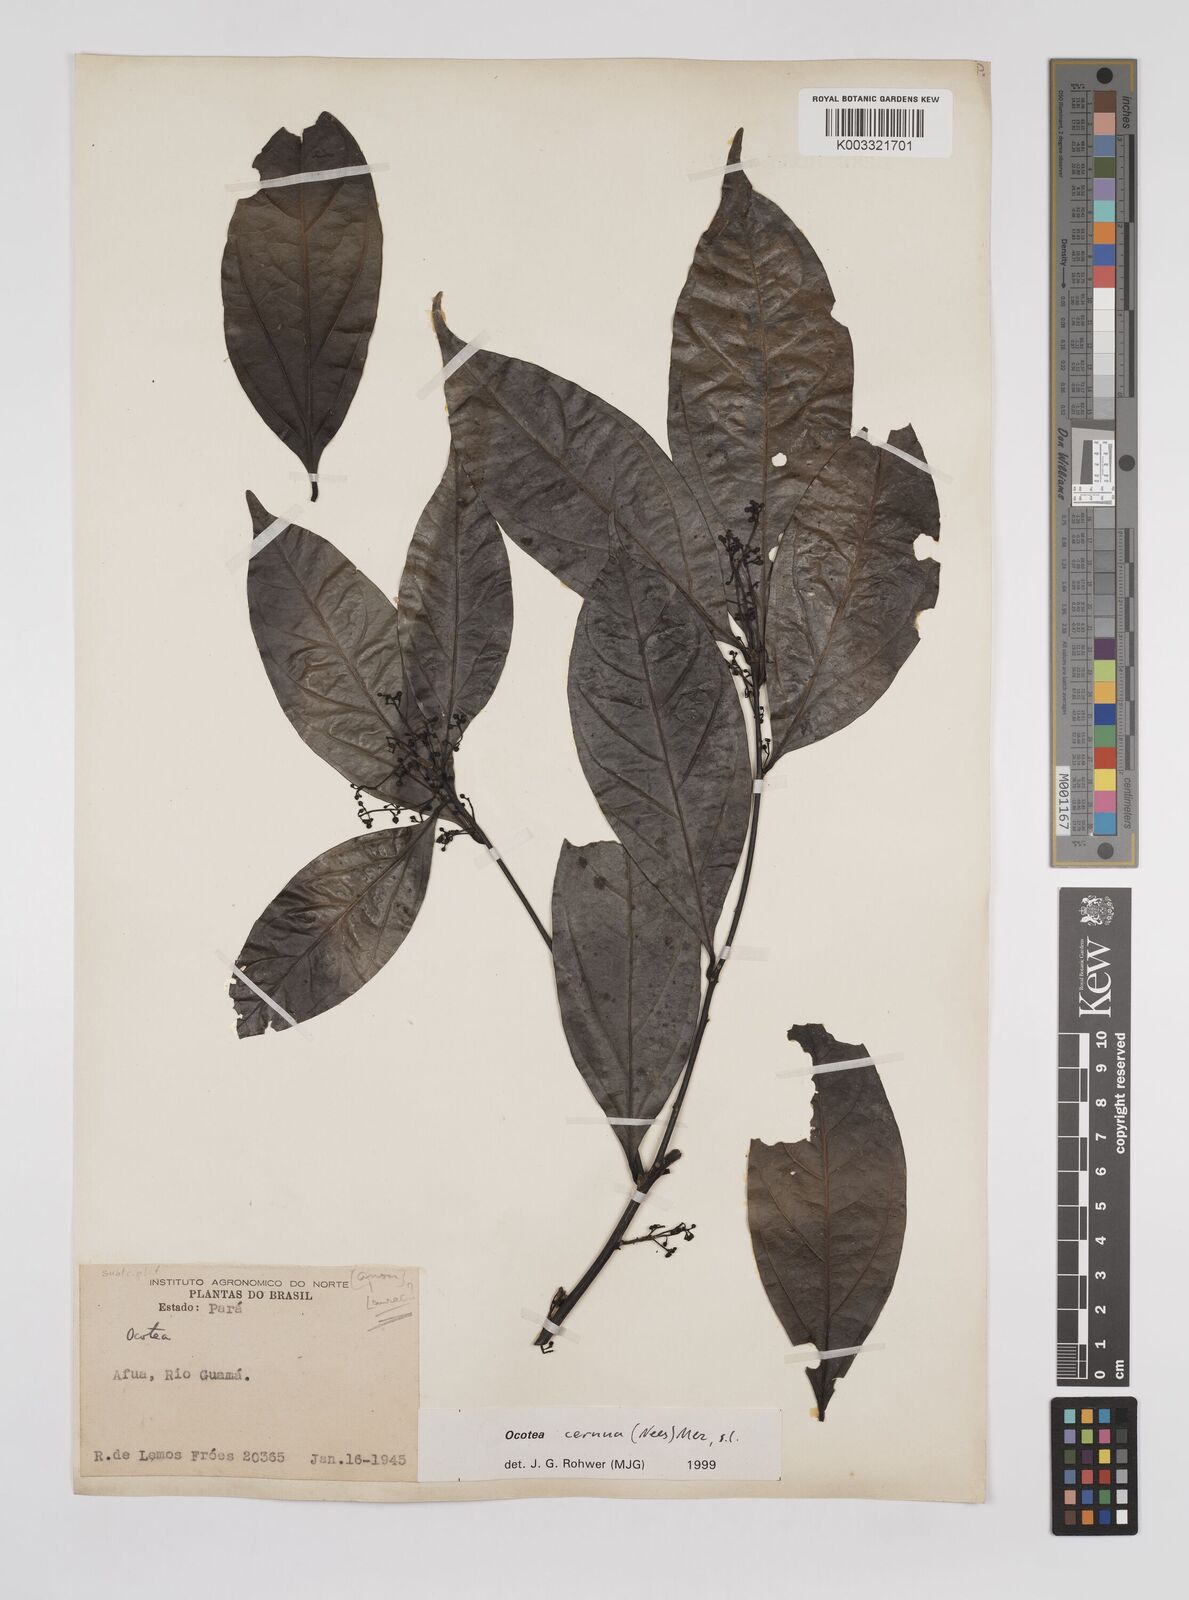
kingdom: Plantae
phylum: Tracheophyta
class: Magnoliopsida
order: Laurales
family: Lauraceae
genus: Ocotea
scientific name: Ocotea leptobotra
